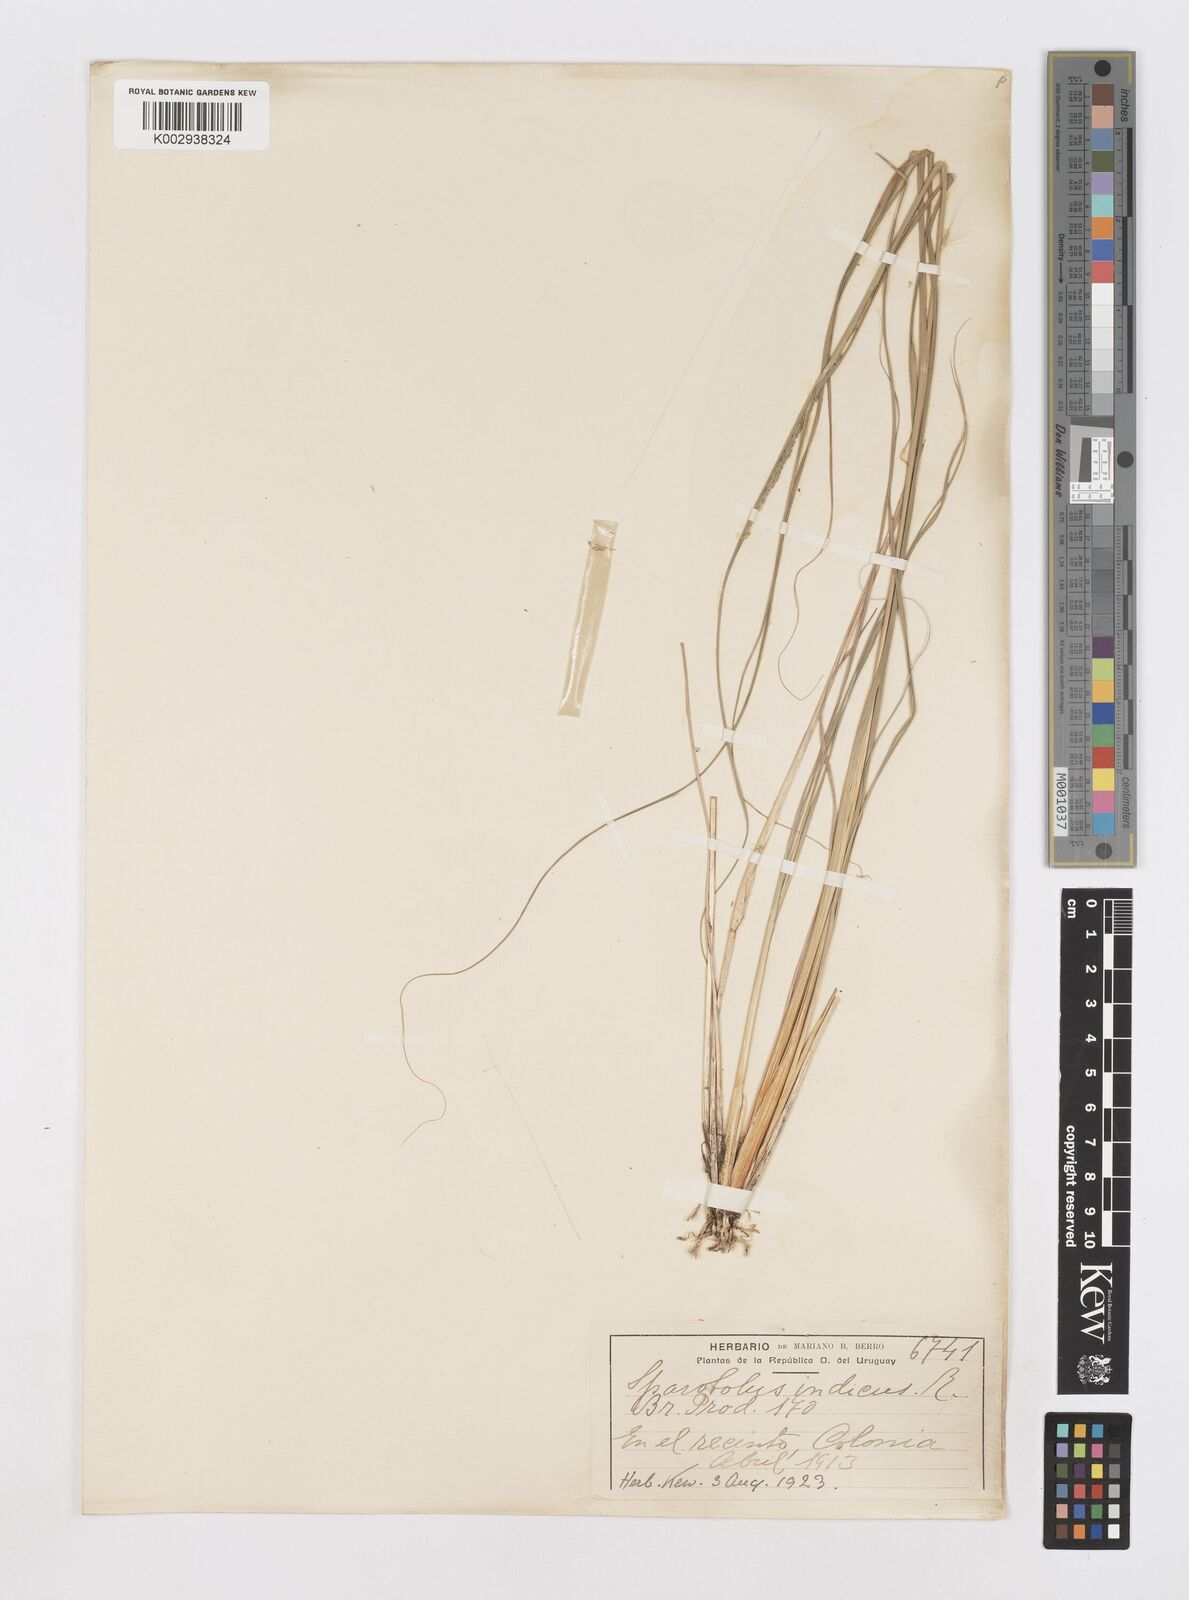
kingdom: Plantae
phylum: Tracheophyta
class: Liliopsida
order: Poales
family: Poaceae
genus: Sporobolus
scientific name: Sporobolus indicus
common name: Smut grass
